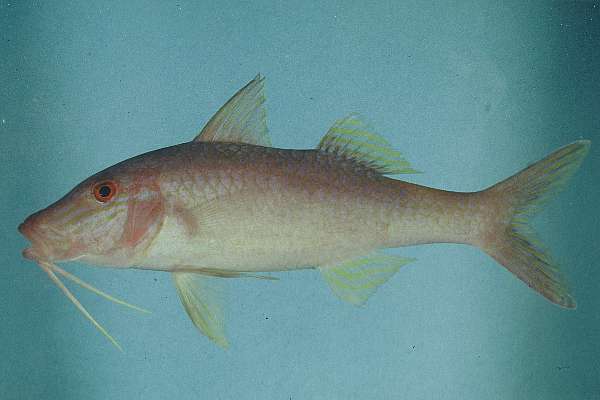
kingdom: Animalia
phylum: Chordata
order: Perciformes
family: Mullidae
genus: Parupeneus
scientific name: Parupeneus cyclostomus
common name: Goldsaddle goatfish
